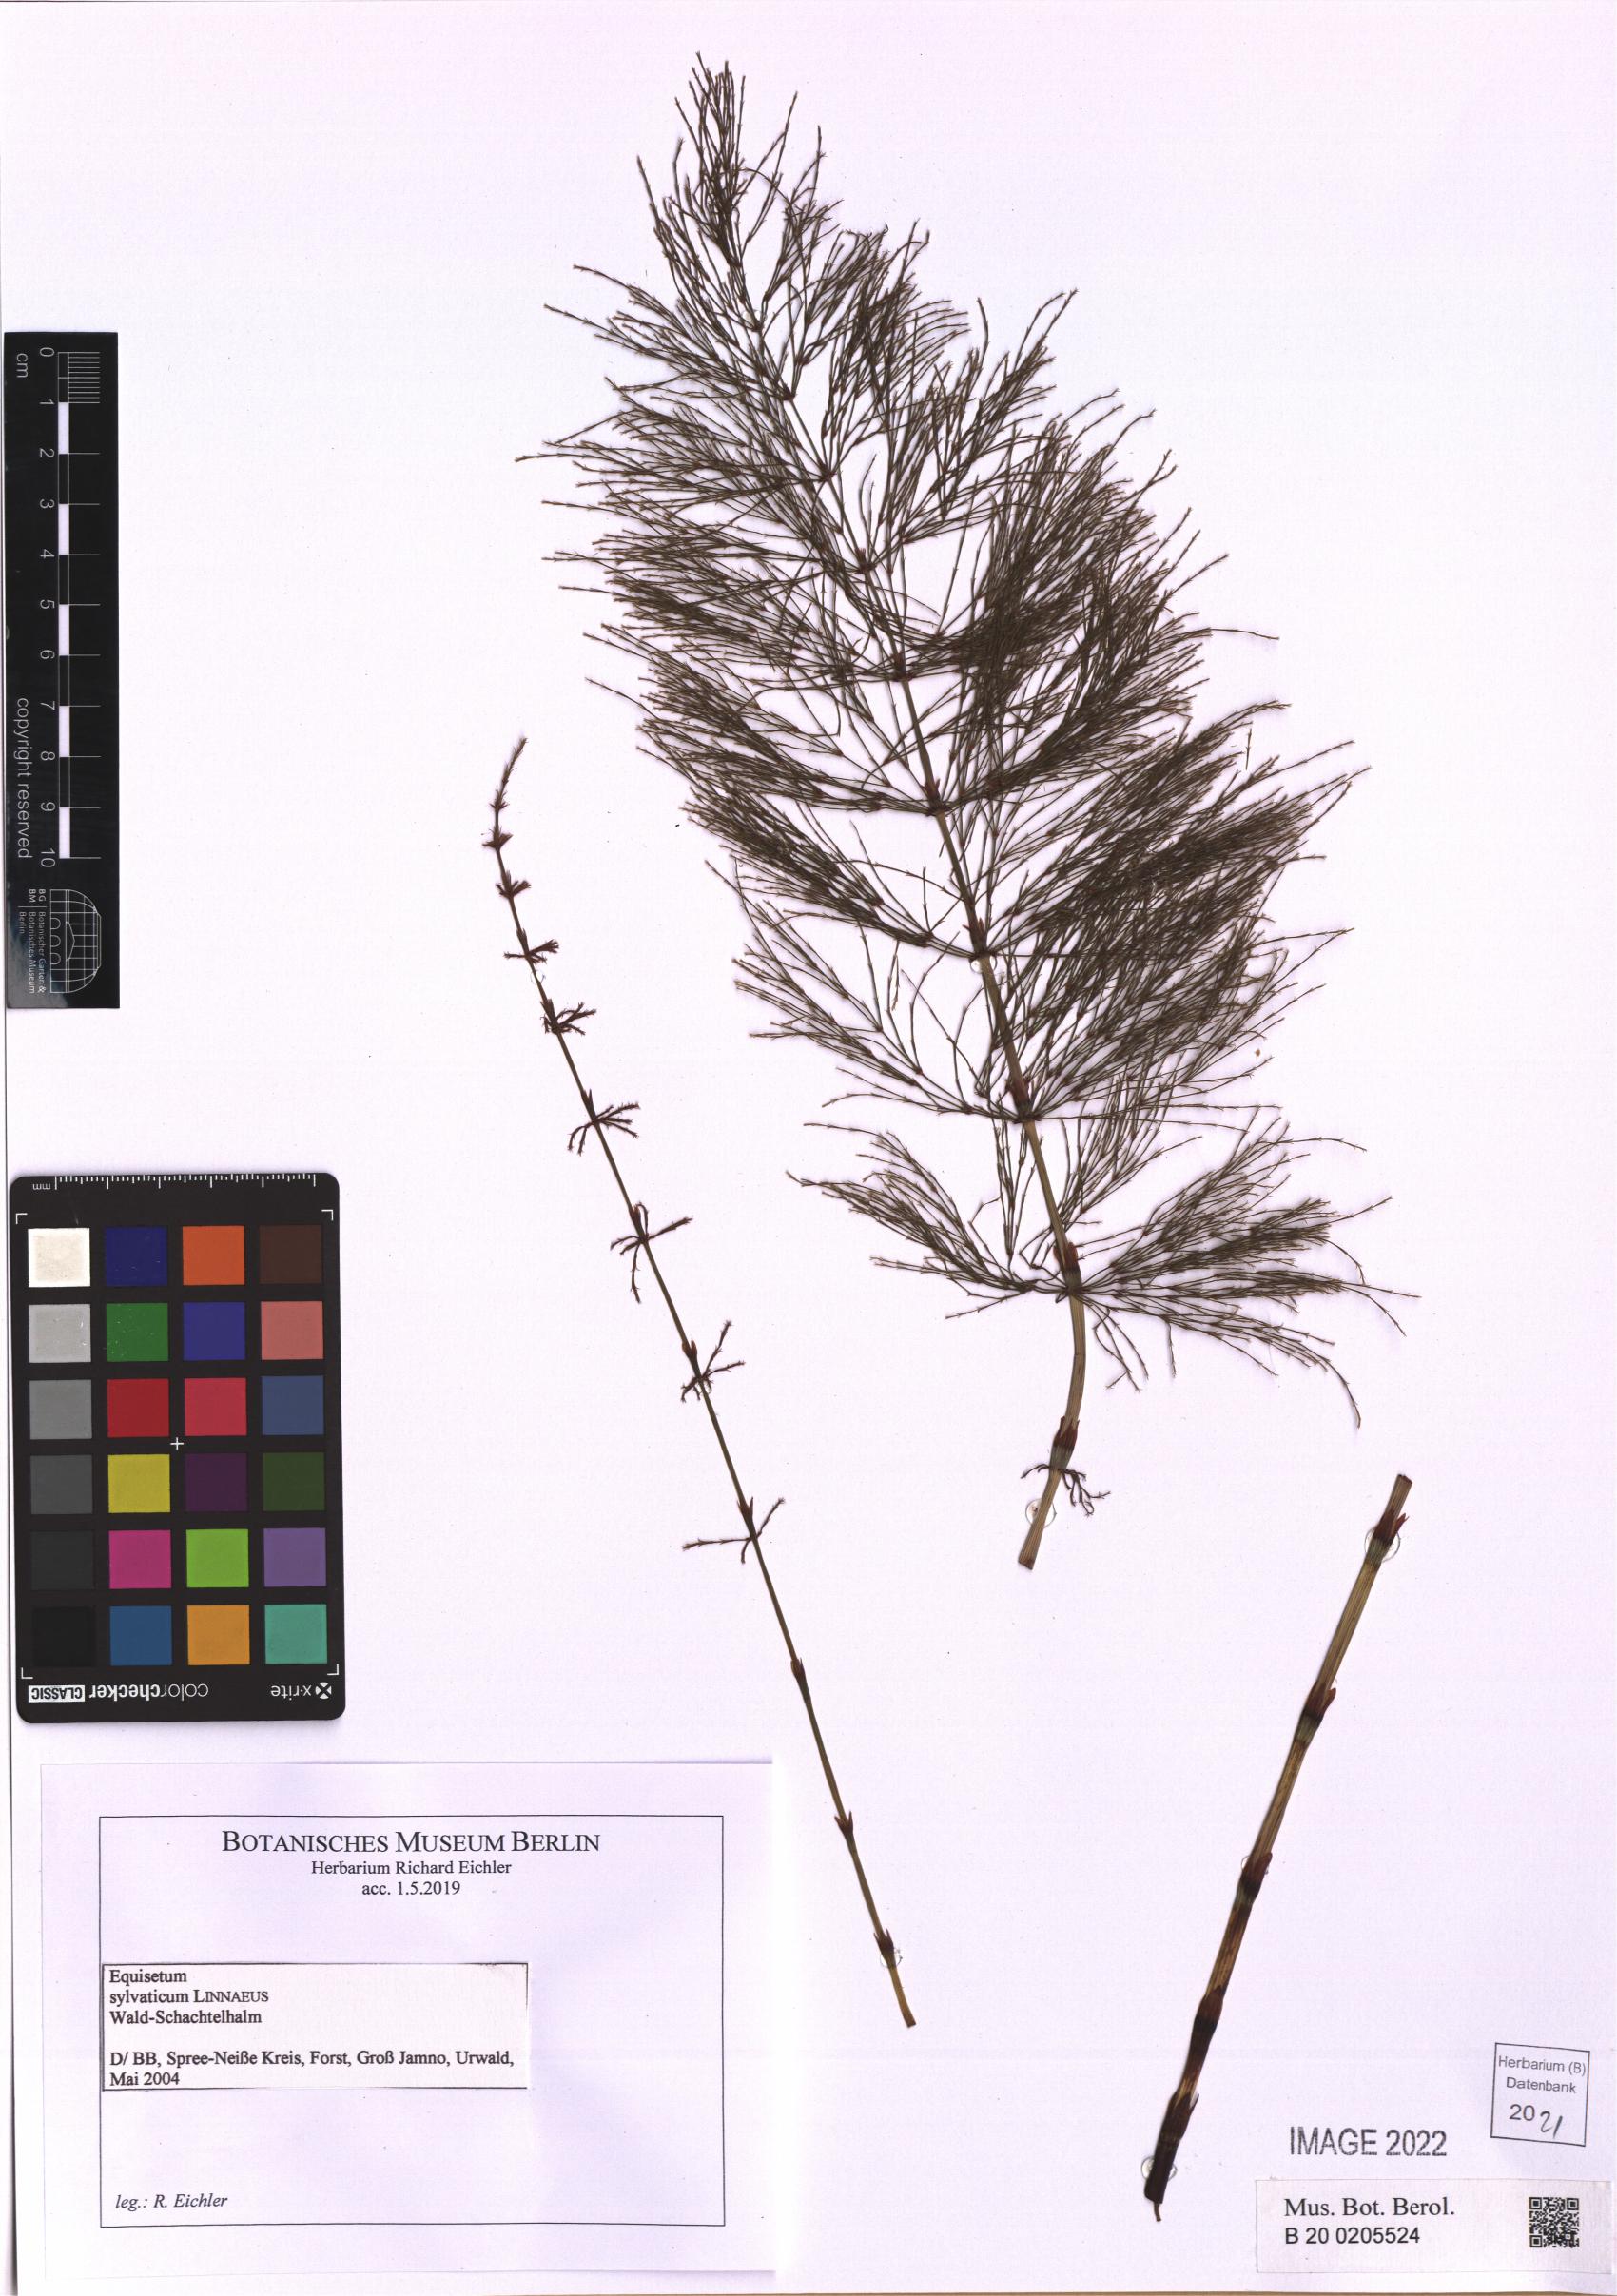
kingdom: Plantae
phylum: Tracheophyta
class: Polypodiopsida
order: Equisetales
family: Equisetaceae
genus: Equisetum
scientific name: Equisetum sylvaticum
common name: Wood horsetail
